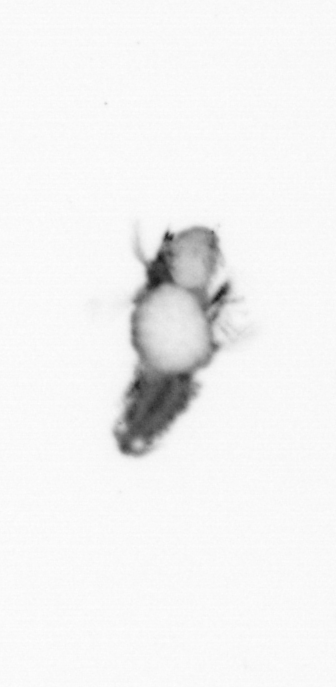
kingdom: Animalia
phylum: Annelida
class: Polychaeta
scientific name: Polychaeta
